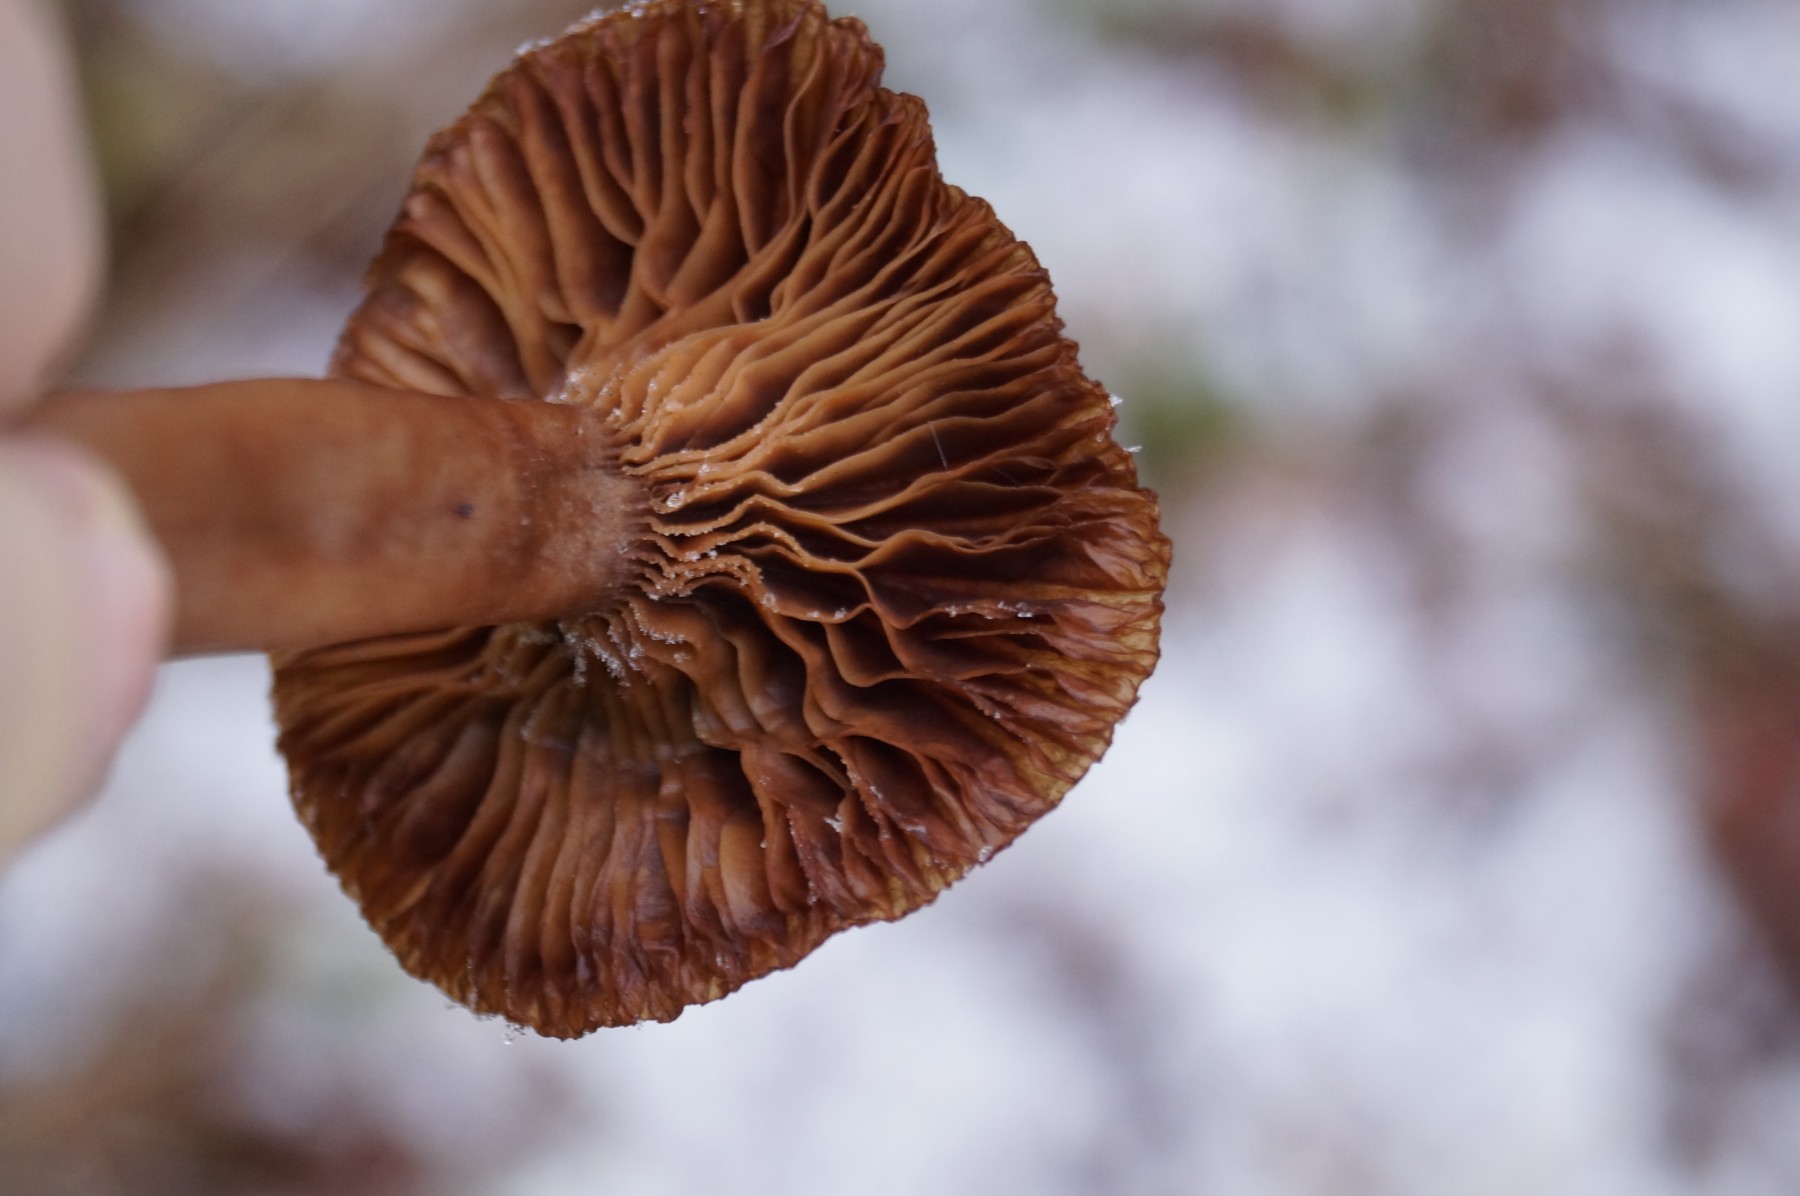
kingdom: Fungi
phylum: Basidiomycota
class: Agaricomycetes
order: Agaricales
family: Pseudoclitocybaceae
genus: Pseudoclitocybe
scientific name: Pseudoclitocybe cyathiformis
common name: almindelig bægertragthat
